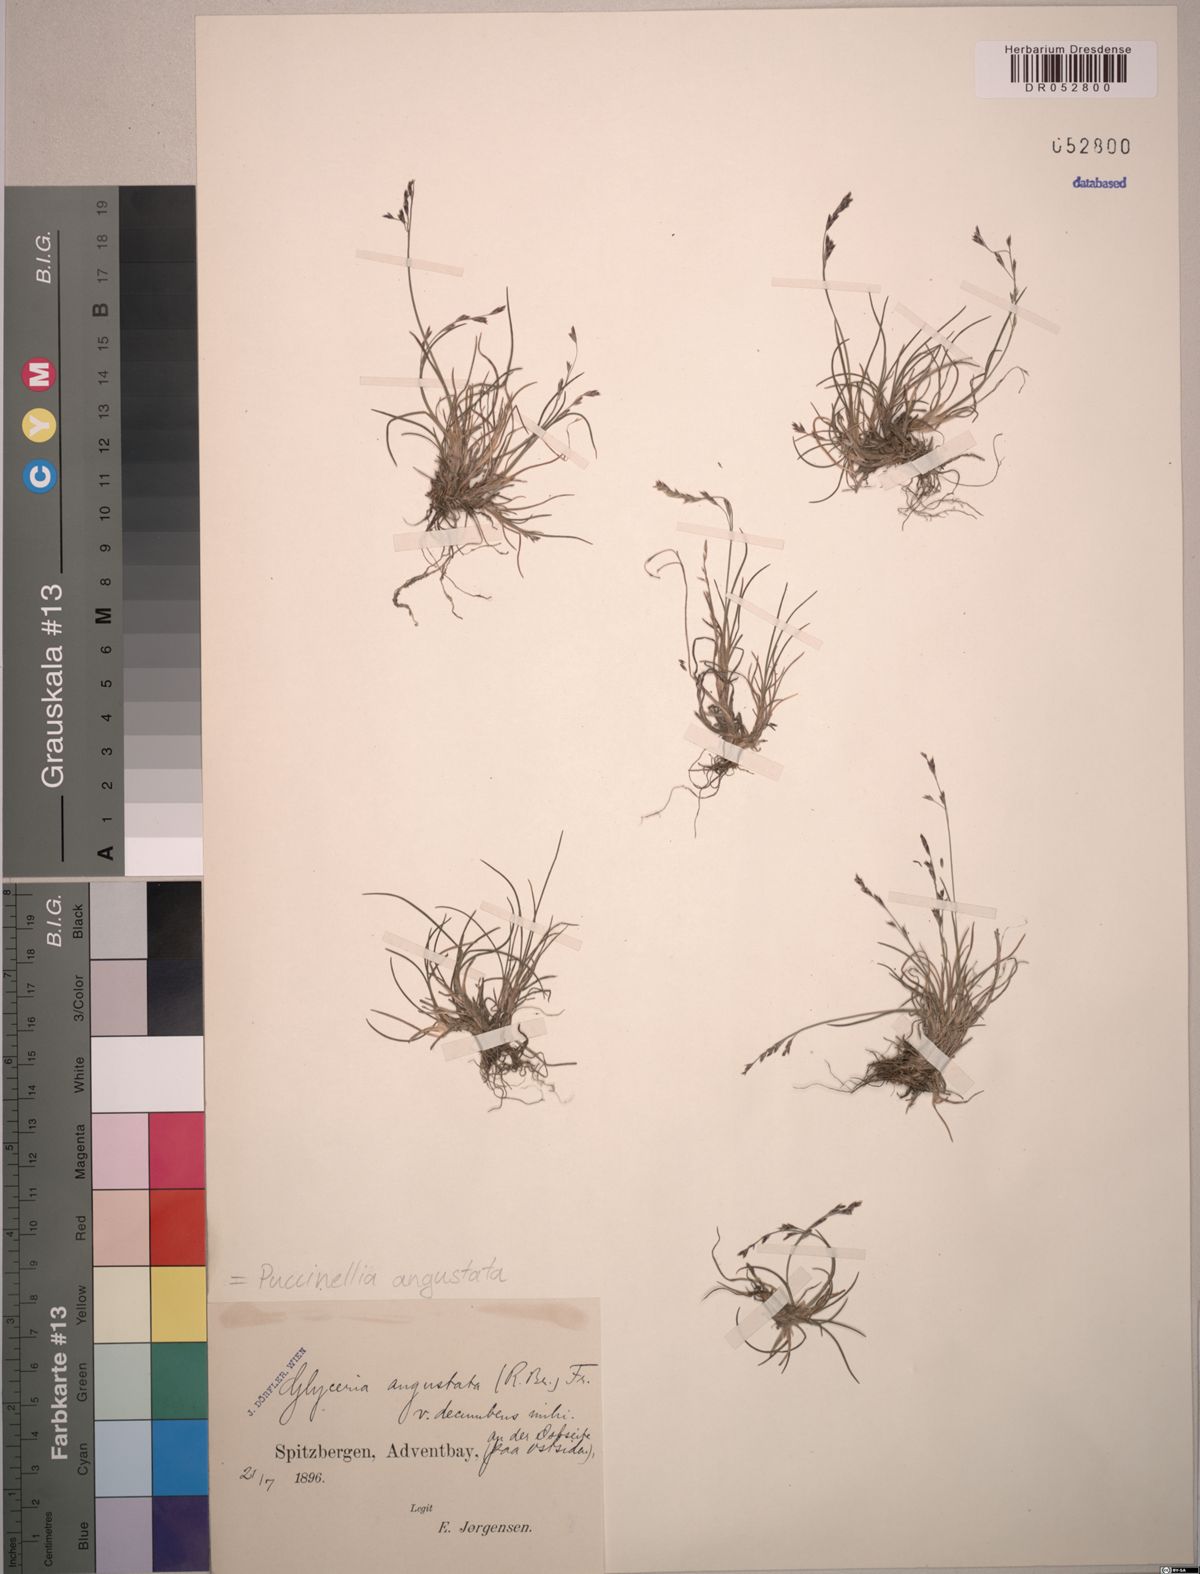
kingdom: Plantae
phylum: Tracheophyta
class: Liliopsida
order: Poales
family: Poaceae
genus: Puccinellia
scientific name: Puccinellia angustata
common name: Narrow alkaligrass
